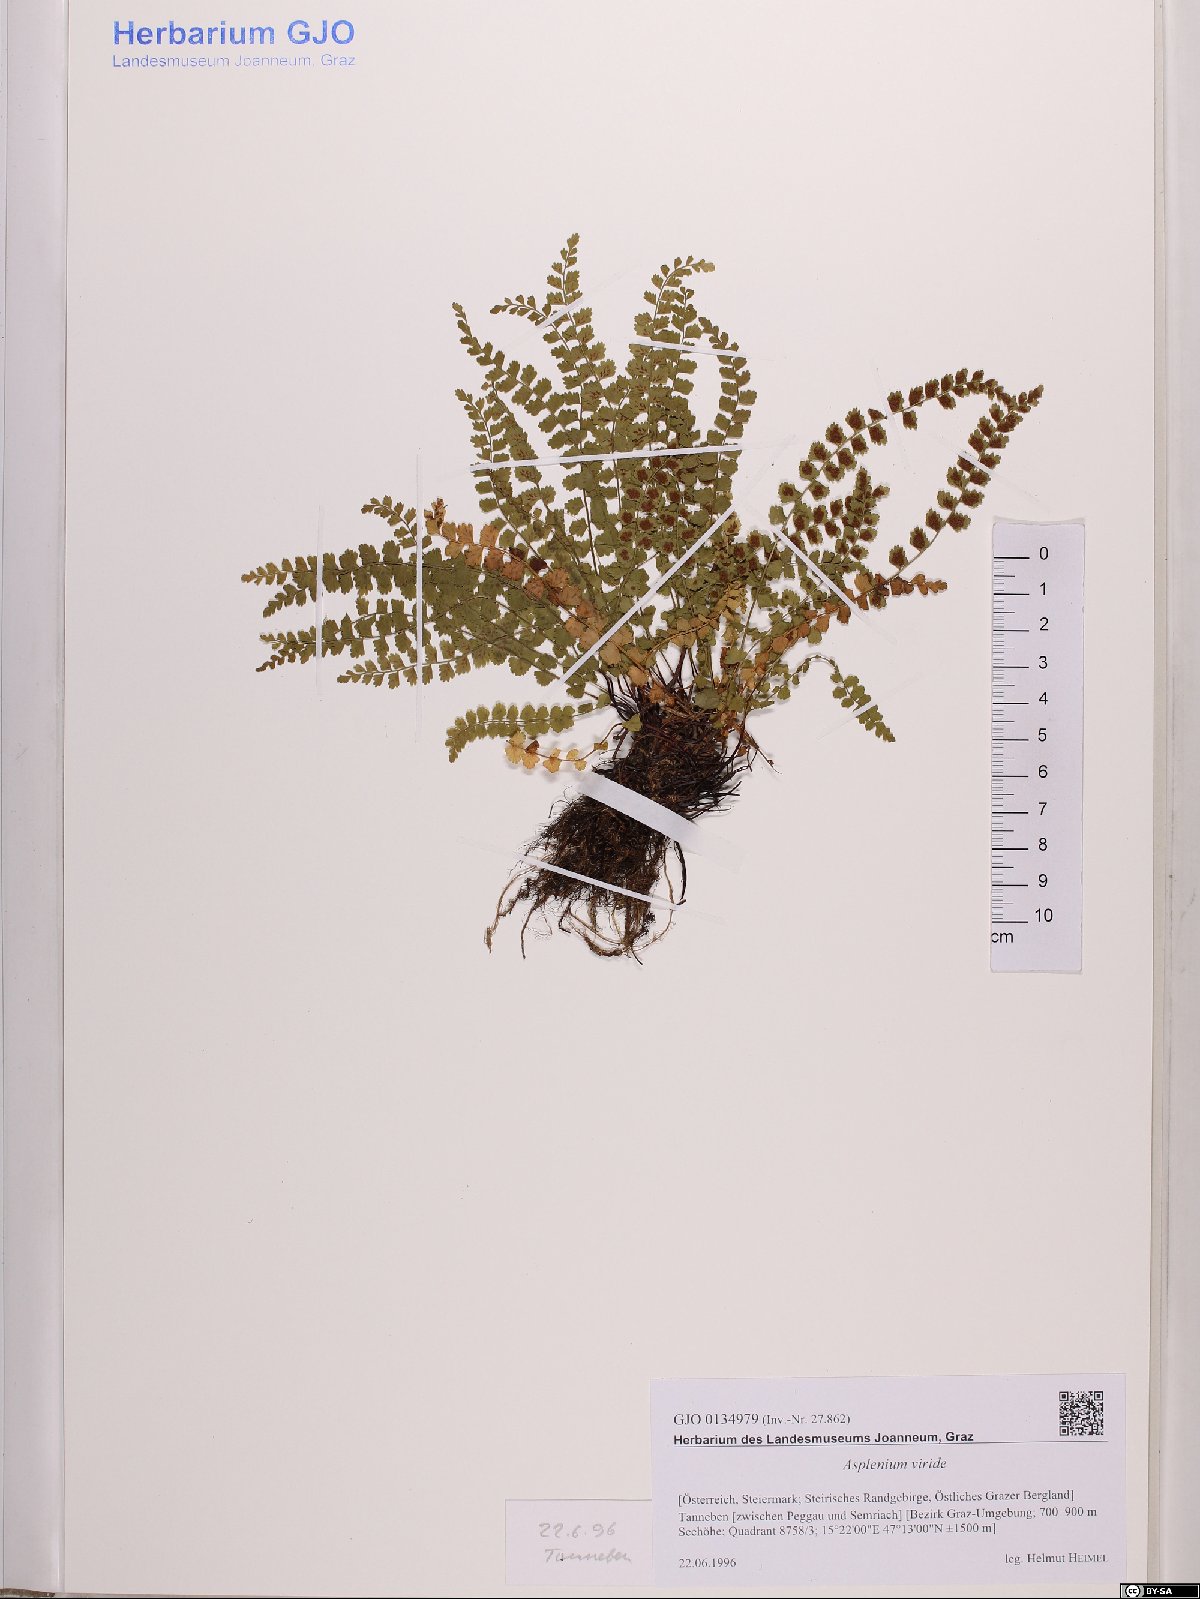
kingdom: Plantae
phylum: Tracheophyta
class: Polypodiopsida
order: Polypodiales
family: Aspleniaceae
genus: Asplenium
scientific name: Asplenium viride
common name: Green spleenwort
